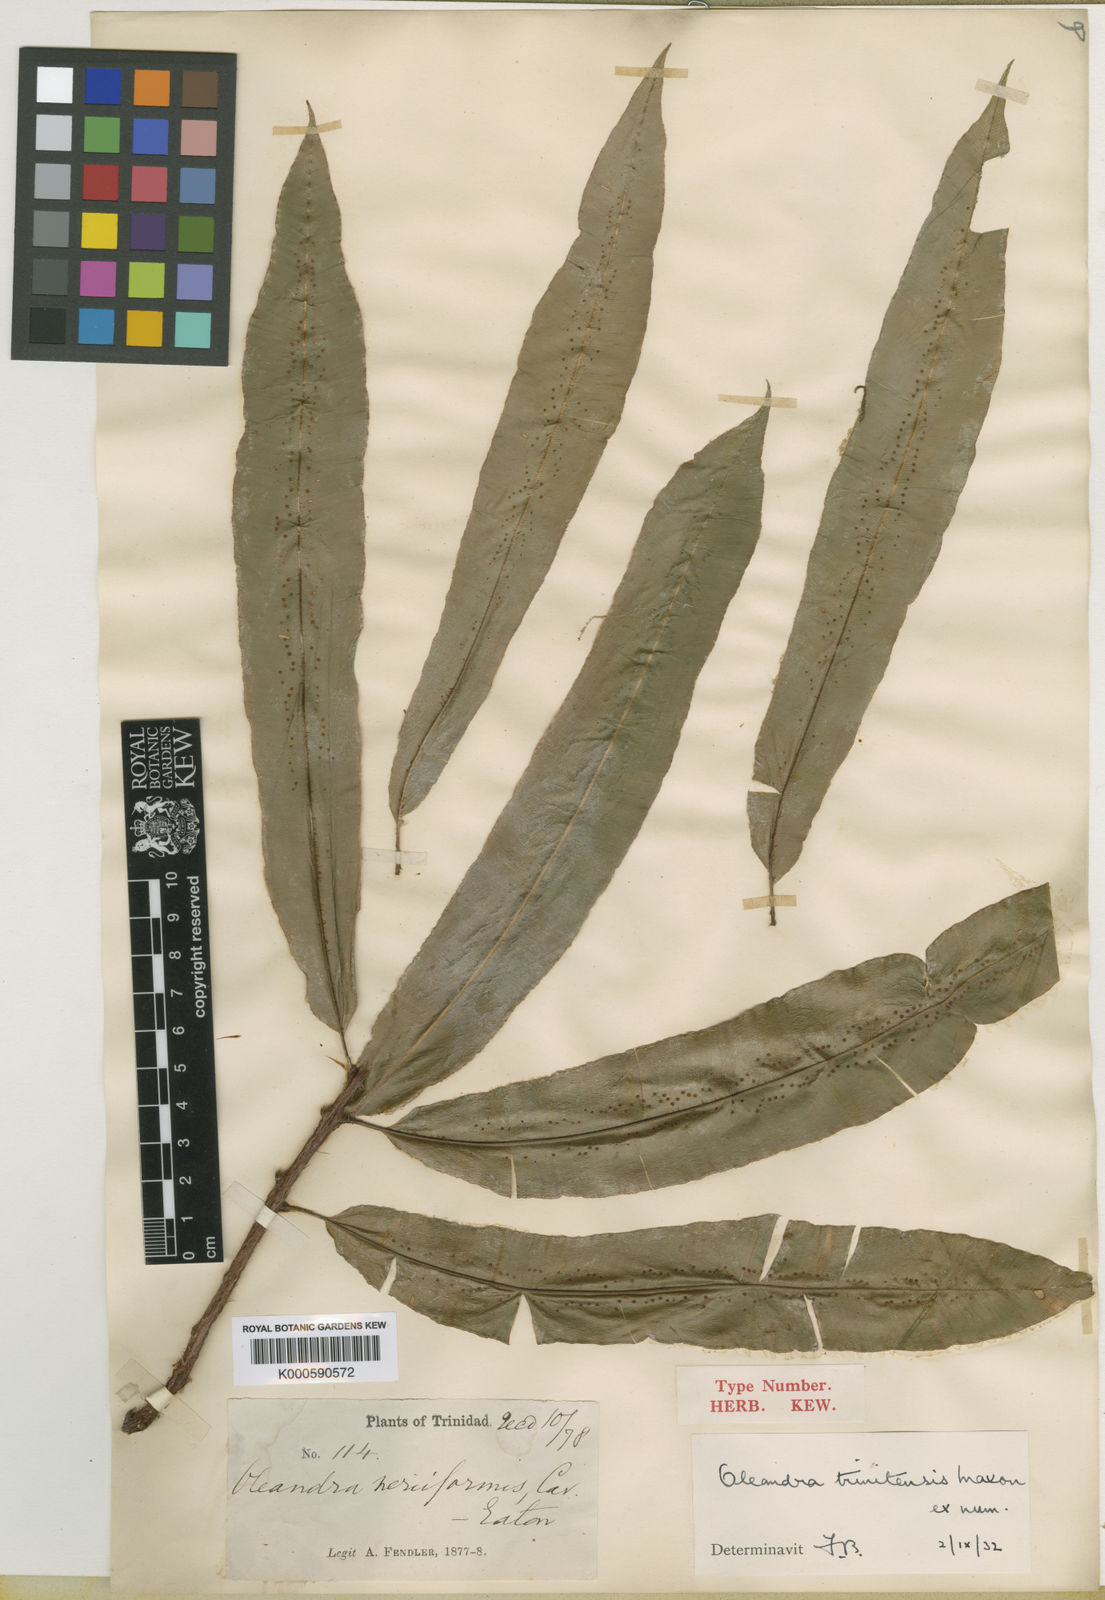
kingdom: Plantae
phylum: Tracheophyta
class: Polypodiopsida
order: Polypodiales
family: Oleandraceae
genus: Oleandra
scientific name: Oleandra pilosa
